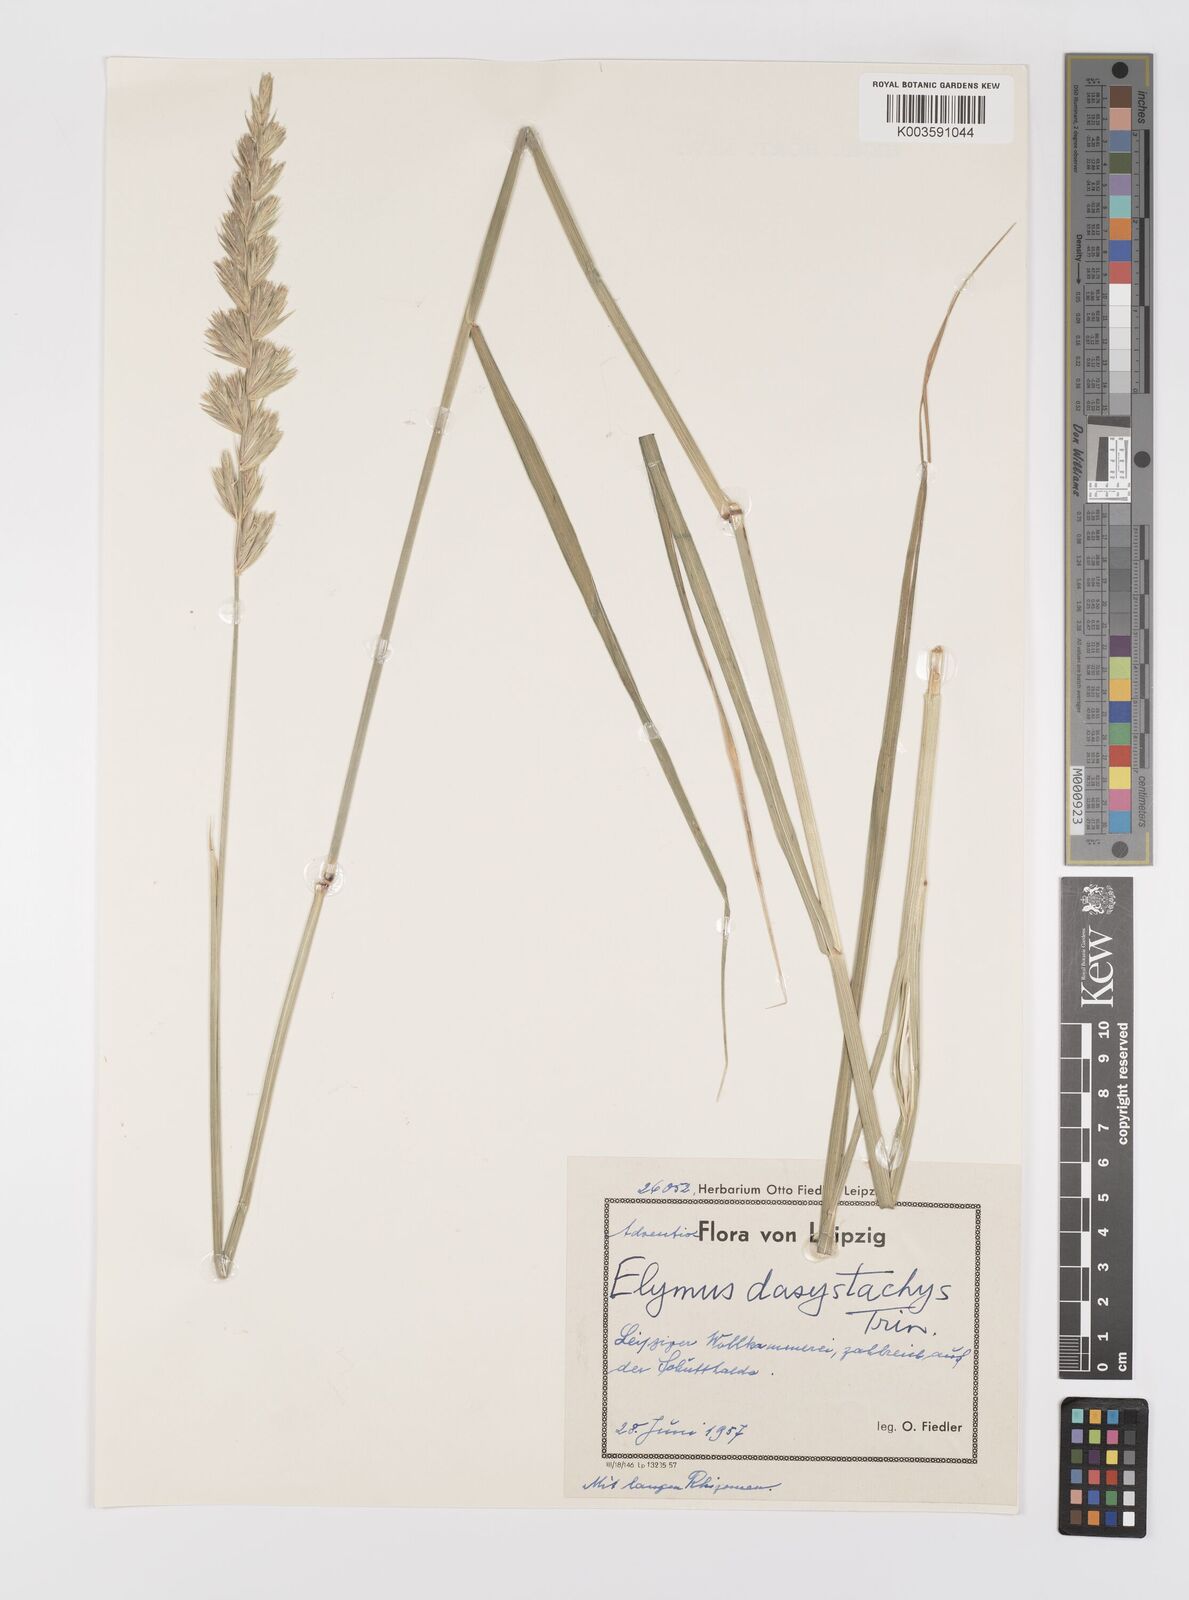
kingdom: Plantae
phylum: Tracheophyta
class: Liliopsida
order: Poales
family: Poaceae
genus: Leymus
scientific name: Leymus secalinus
